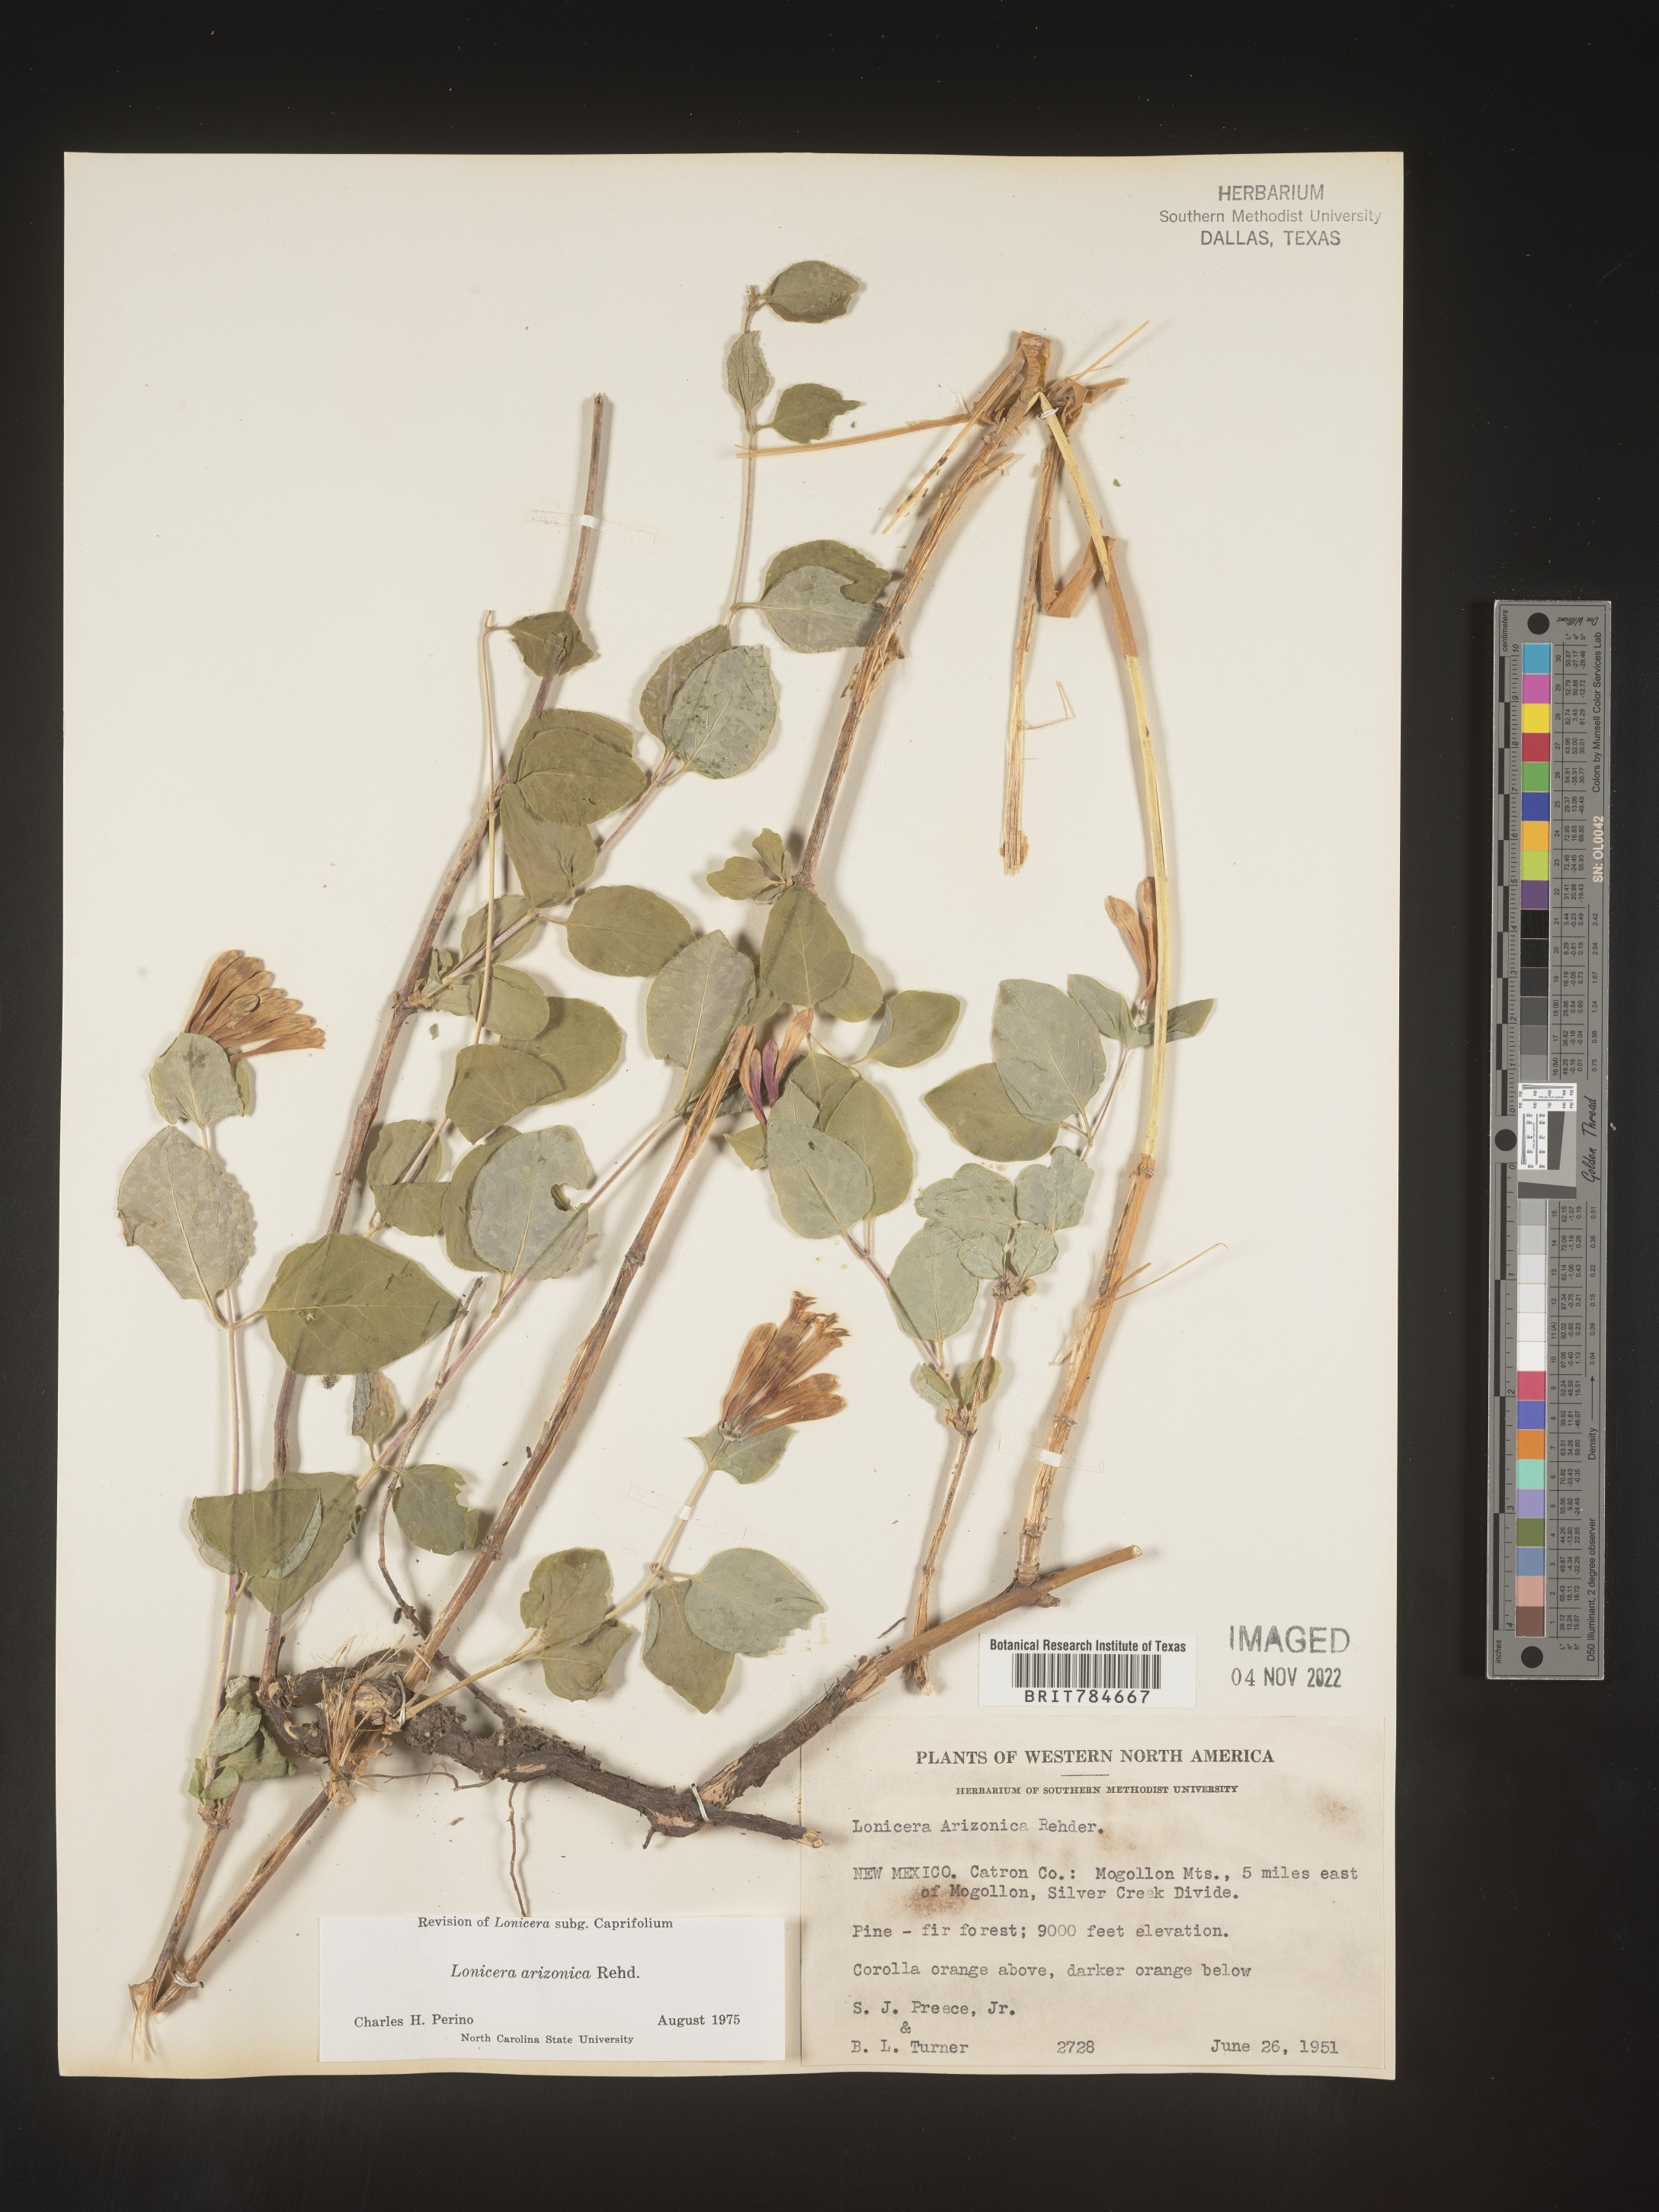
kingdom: Plantae
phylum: Tracheophyta
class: Magnoliopsida
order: Dipsacales
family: Caprifoliaceae
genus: Lonicera
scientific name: Lonicera arizonica
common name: Arizona honeysuckle
